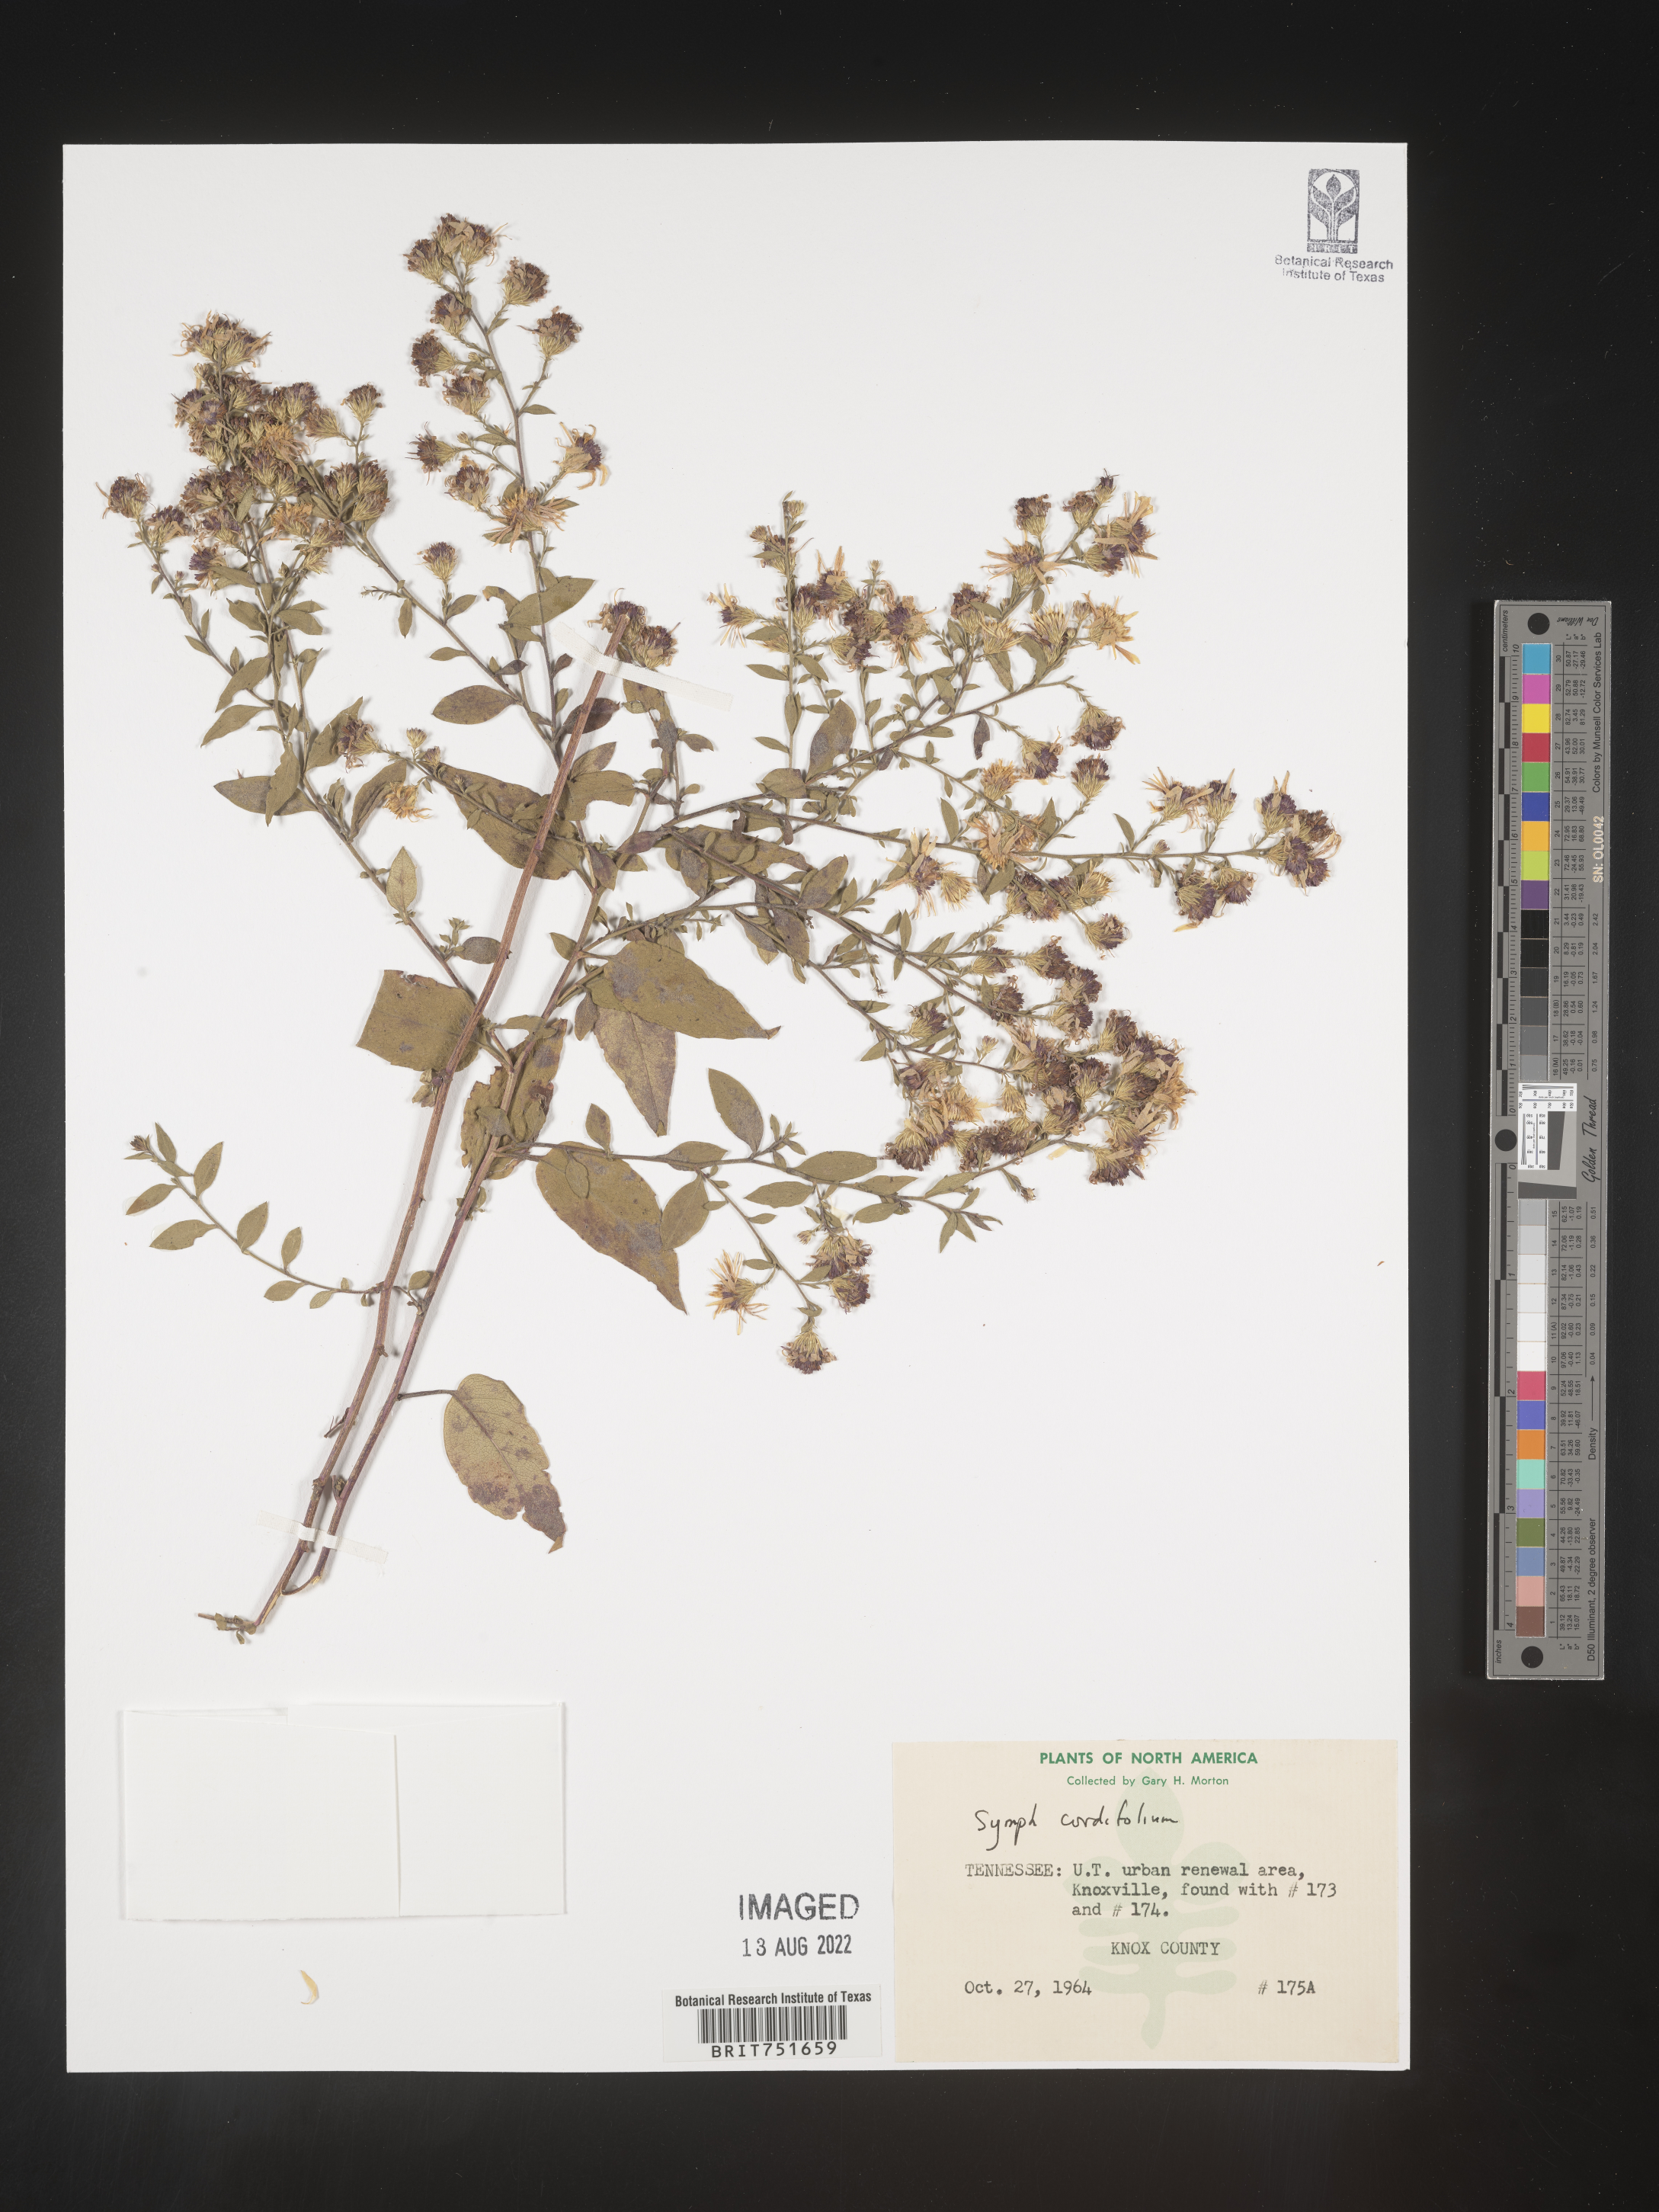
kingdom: Plantae
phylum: Tracheophyta
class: Magnoliopsida
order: Asterales
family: Asteraceae
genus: Symphyotrichum
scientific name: Symphyotrichum cordifolium
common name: Beeweed
